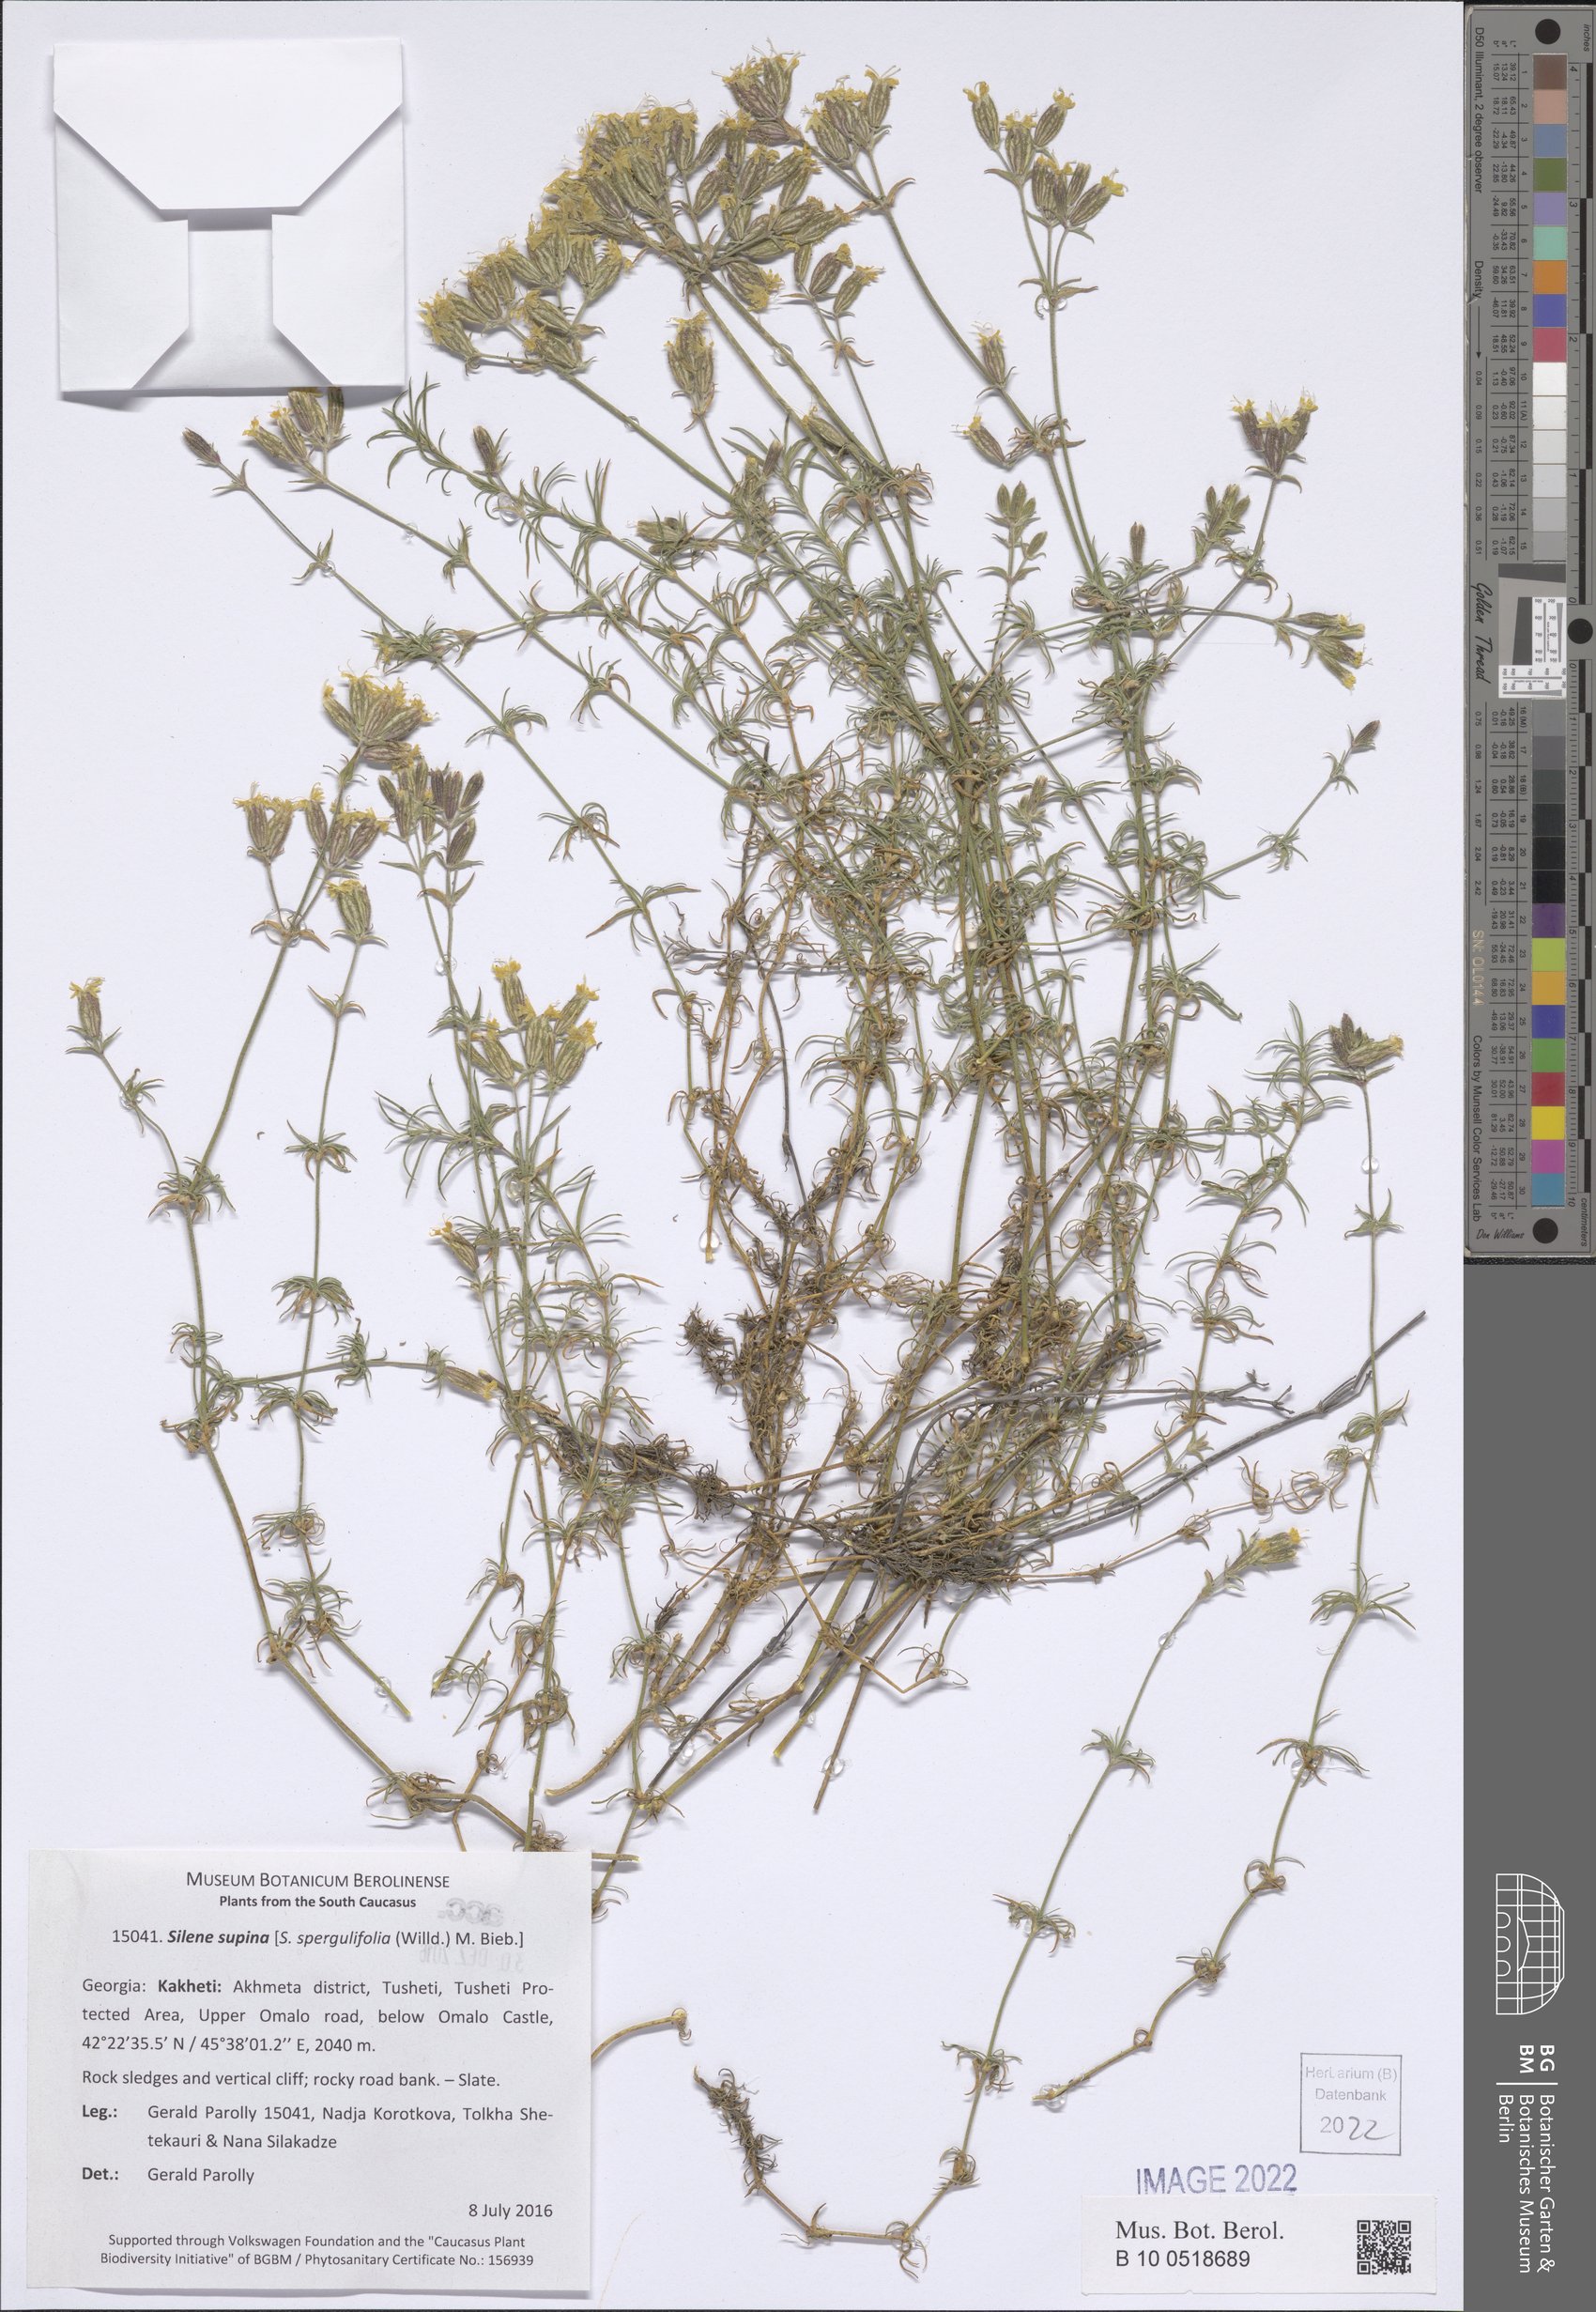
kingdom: Plantae
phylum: Tracheophyta
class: Magnoliopsida
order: Caryophyllales
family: Caryophyllaceae
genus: Silene
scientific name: Silene supina
